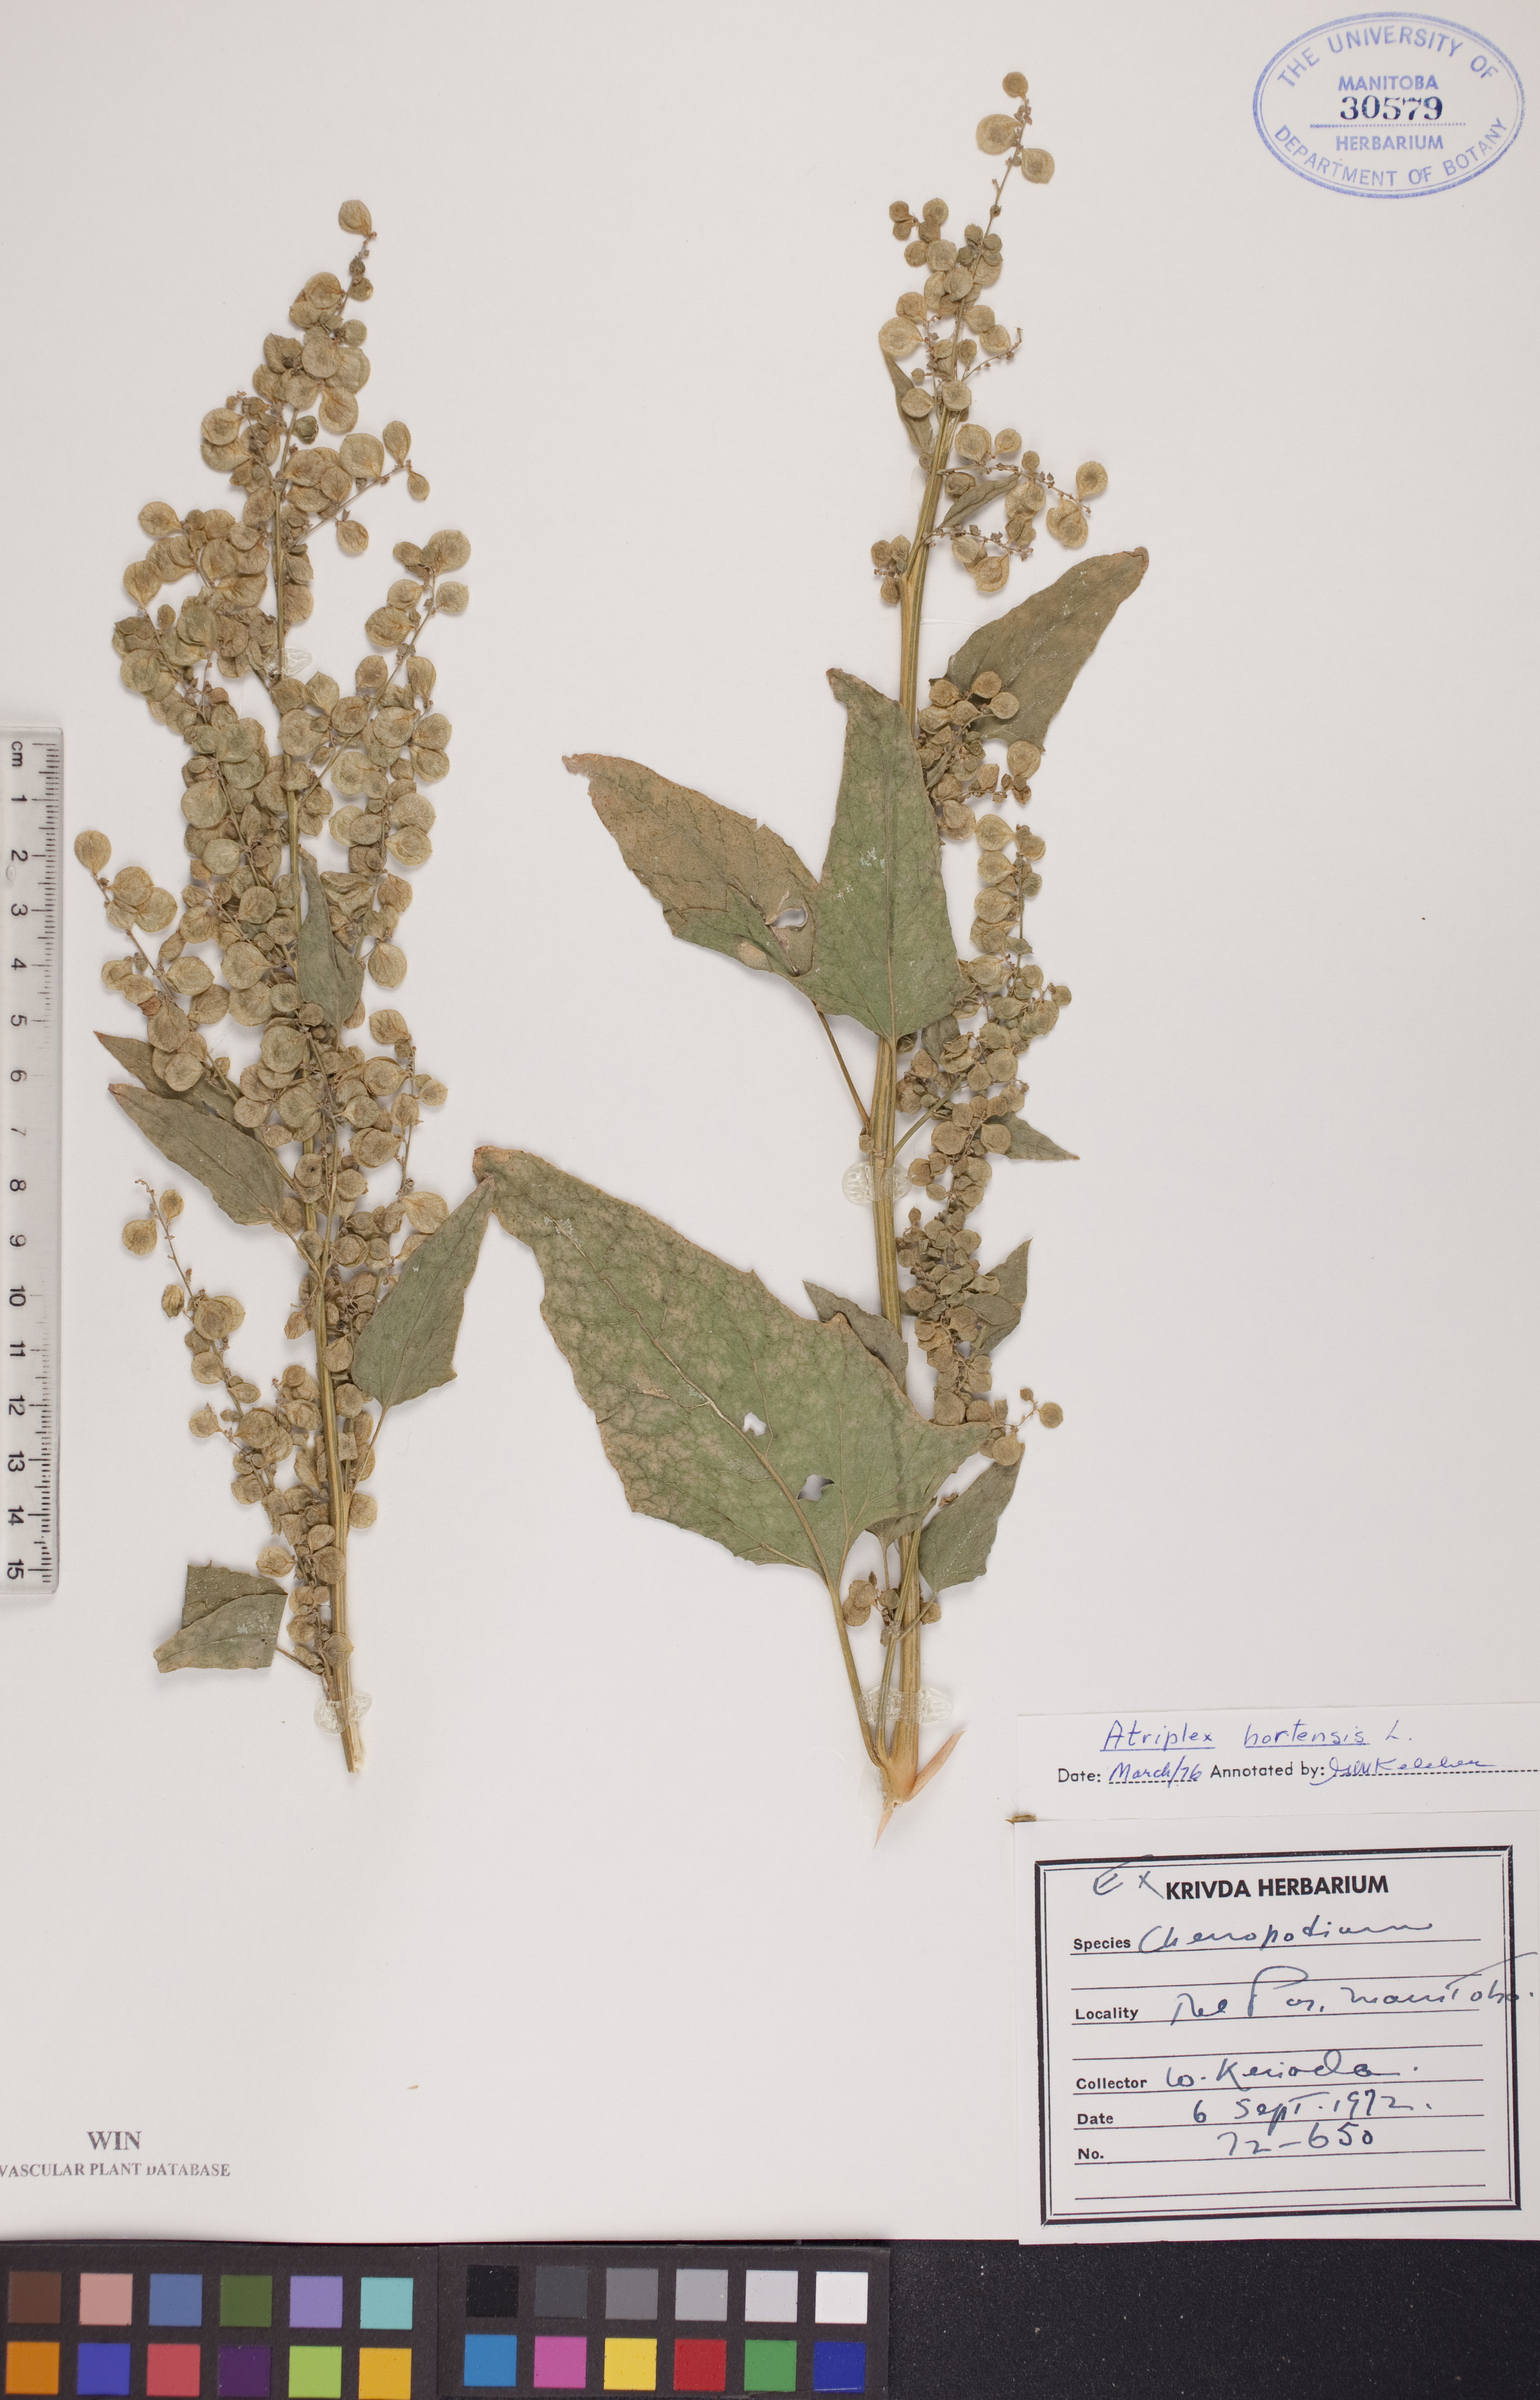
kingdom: Plantae
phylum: Tracheophyta
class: Magnoliopsida
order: Caryophyllales
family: Amaranthaceae
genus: Atriplex
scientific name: Atriplex hortensis
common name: Garden orache
